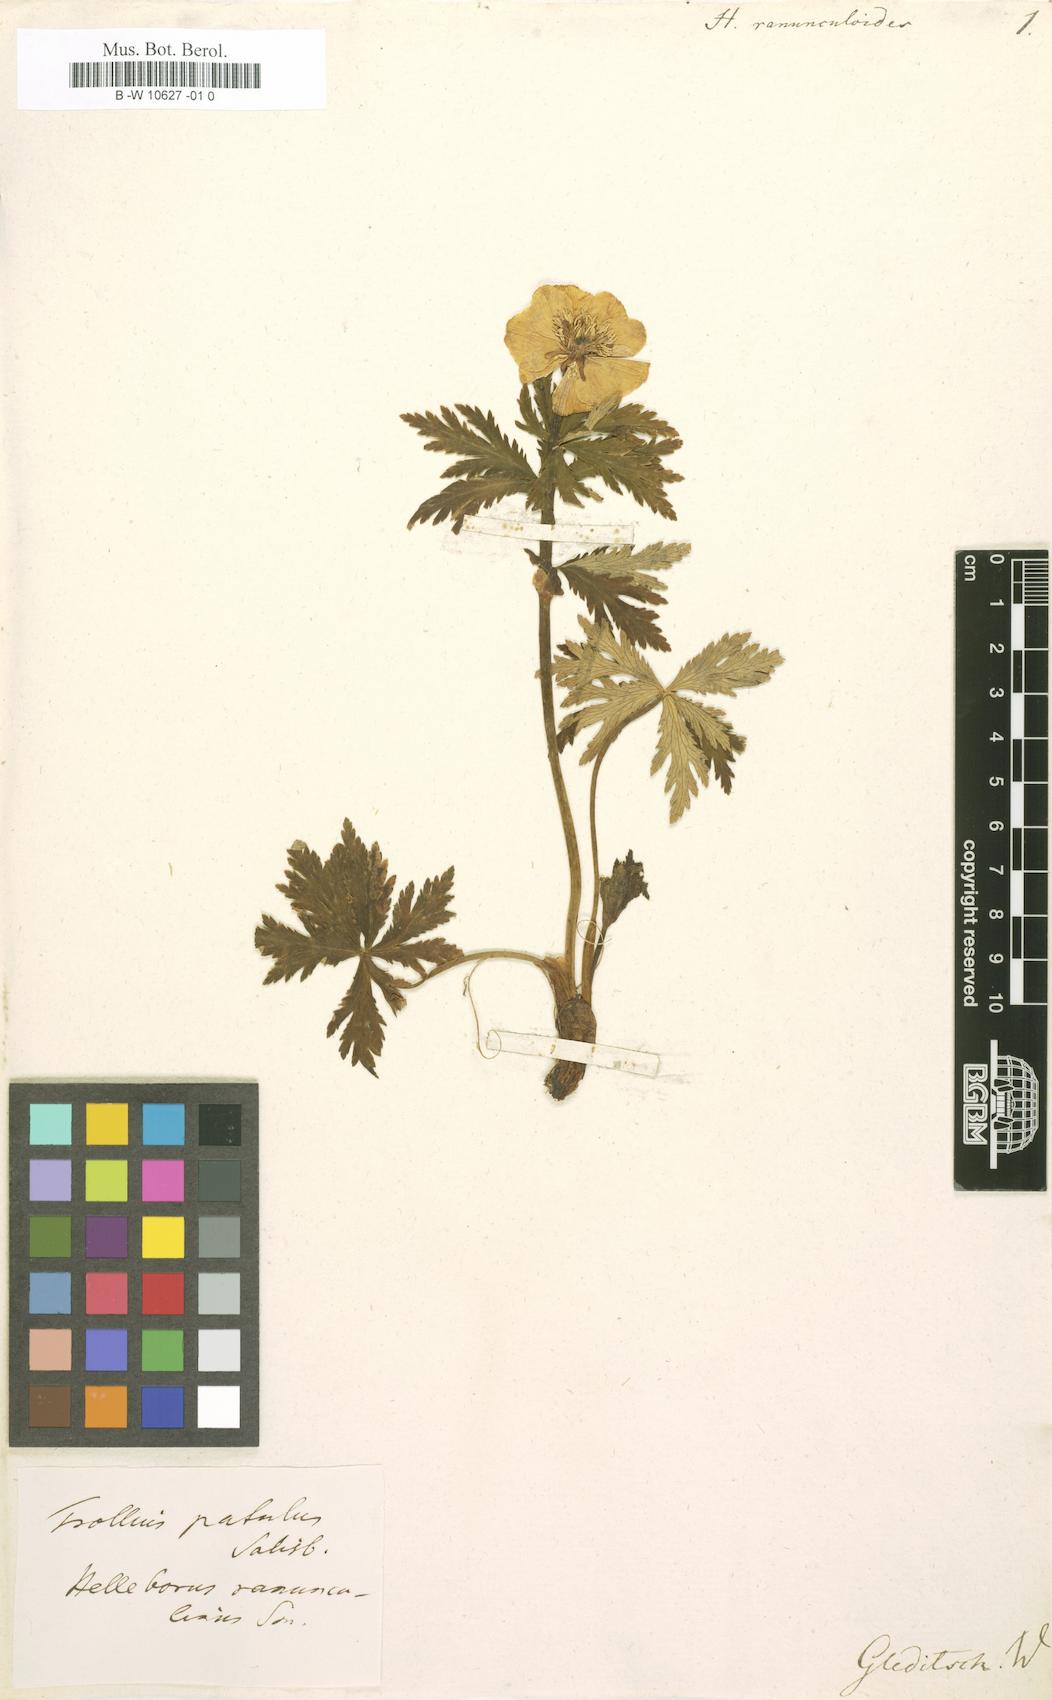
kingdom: Plantae
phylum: Tracheophyta
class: Magnoliopsida
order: Ranunculales
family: Ranunculaceae
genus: Trollius
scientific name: Trollius ranunculinus
